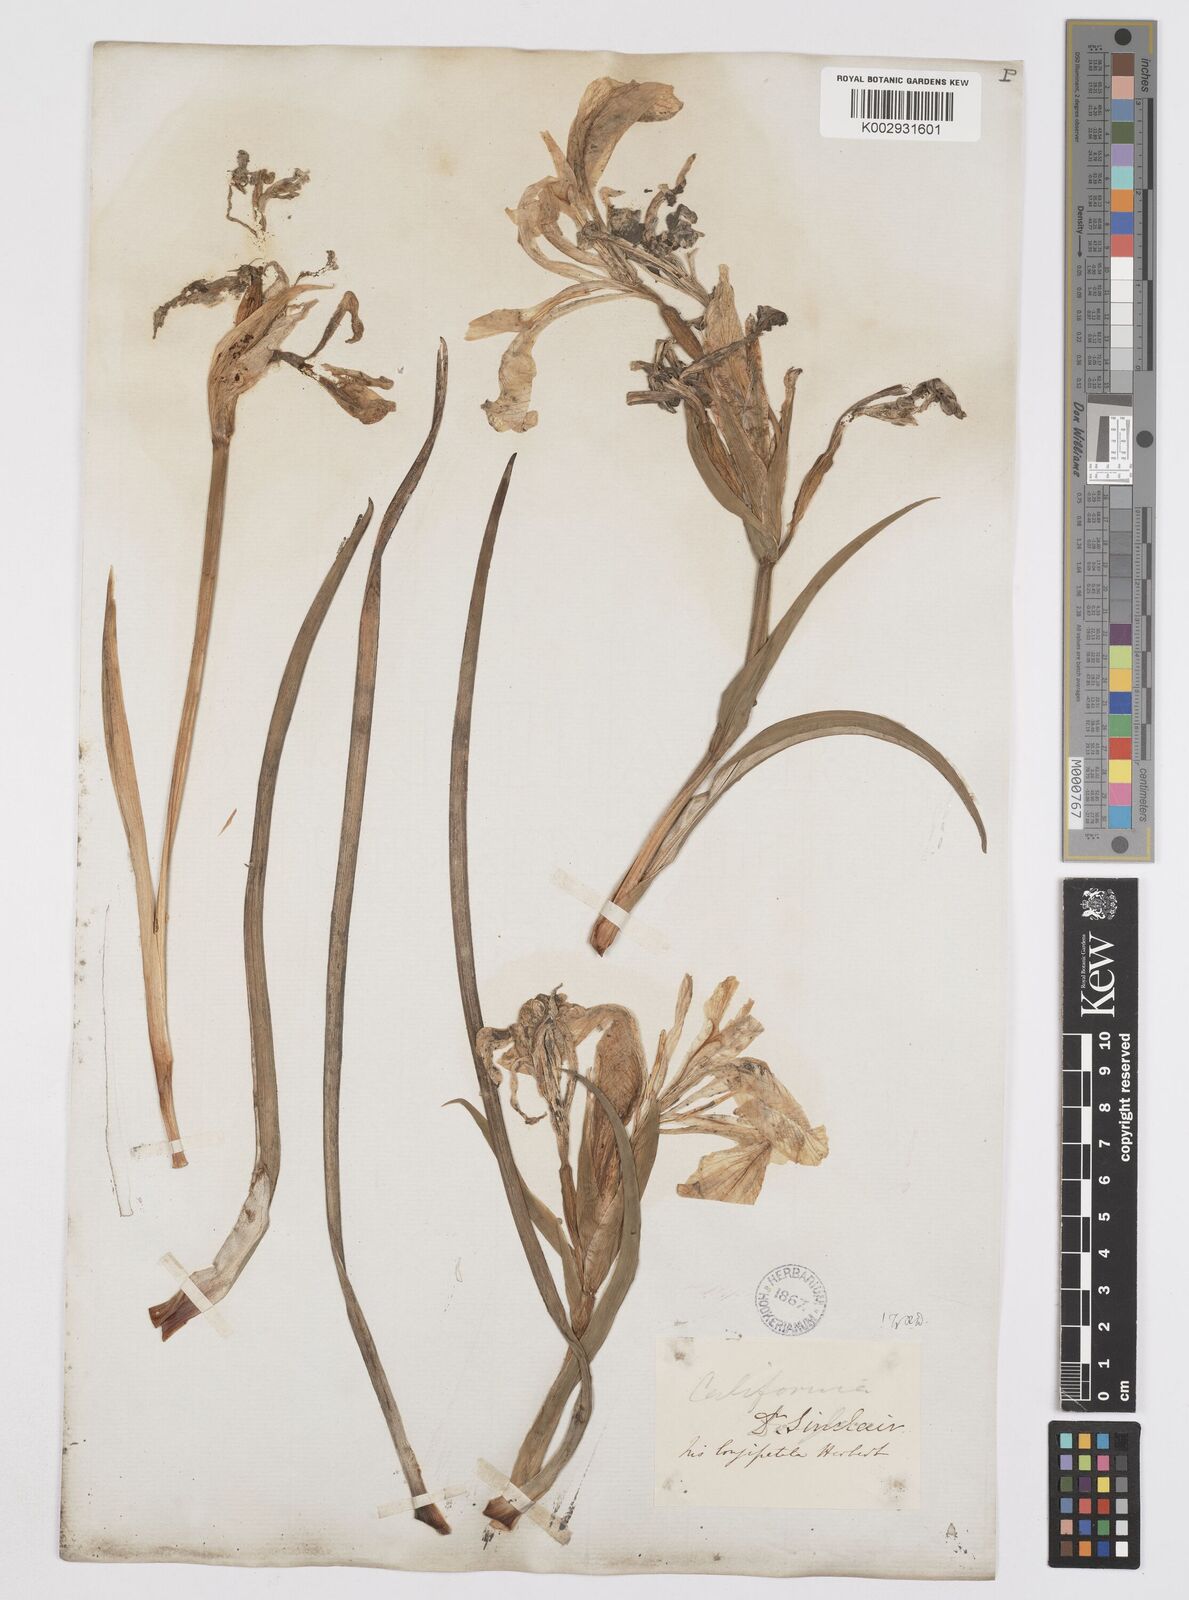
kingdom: Plantae
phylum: Tracheophyta
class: Liliopsida
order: Asparagales
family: Iridaceae
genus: Iris
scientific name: Iris longipetala
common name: Long-petal iris
